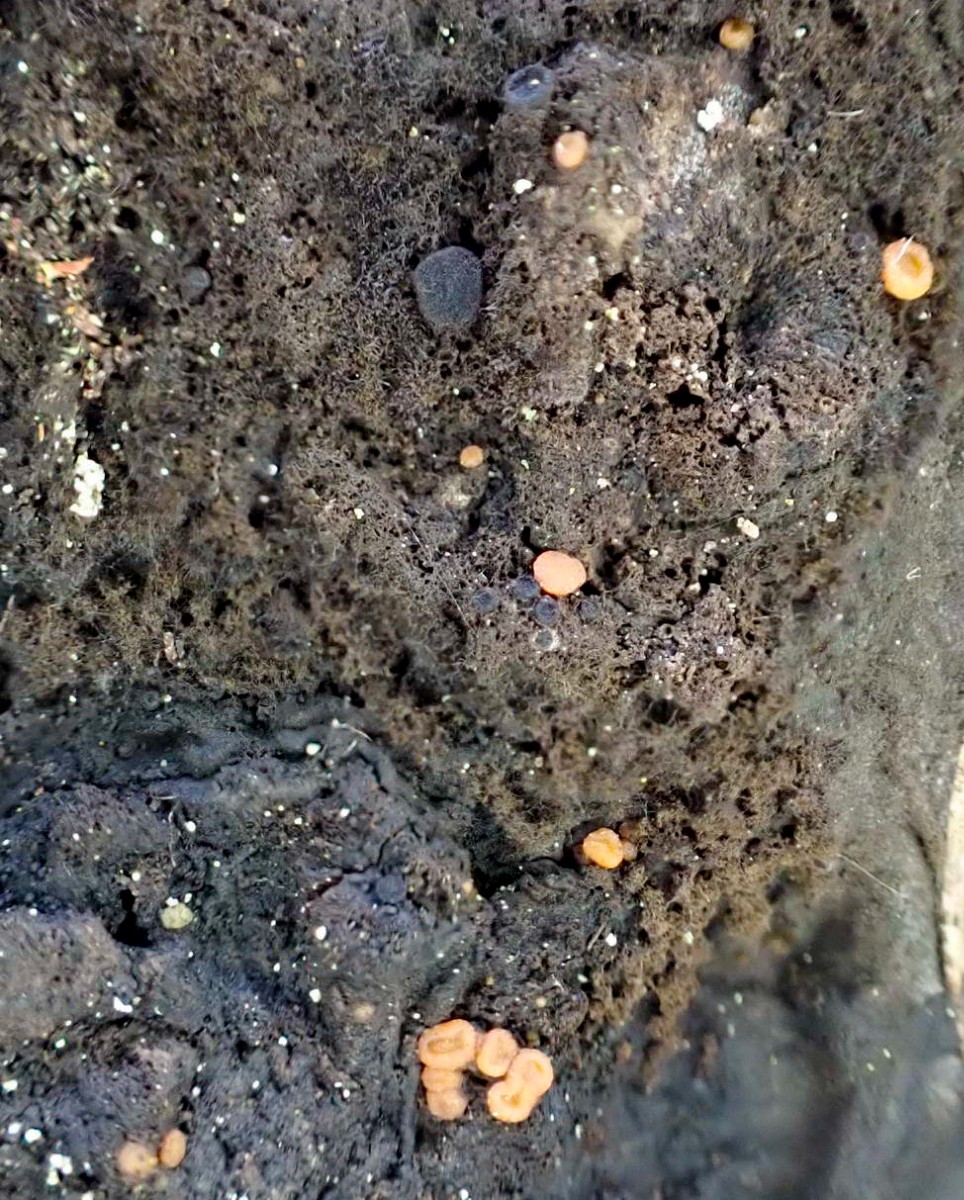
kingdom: Fungi
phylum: Ascomycota
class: Sareomycetes
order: Sareales
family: Sareaceae
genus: Sarea
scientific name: Sarea resinae
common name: orangegul harpiksskive
